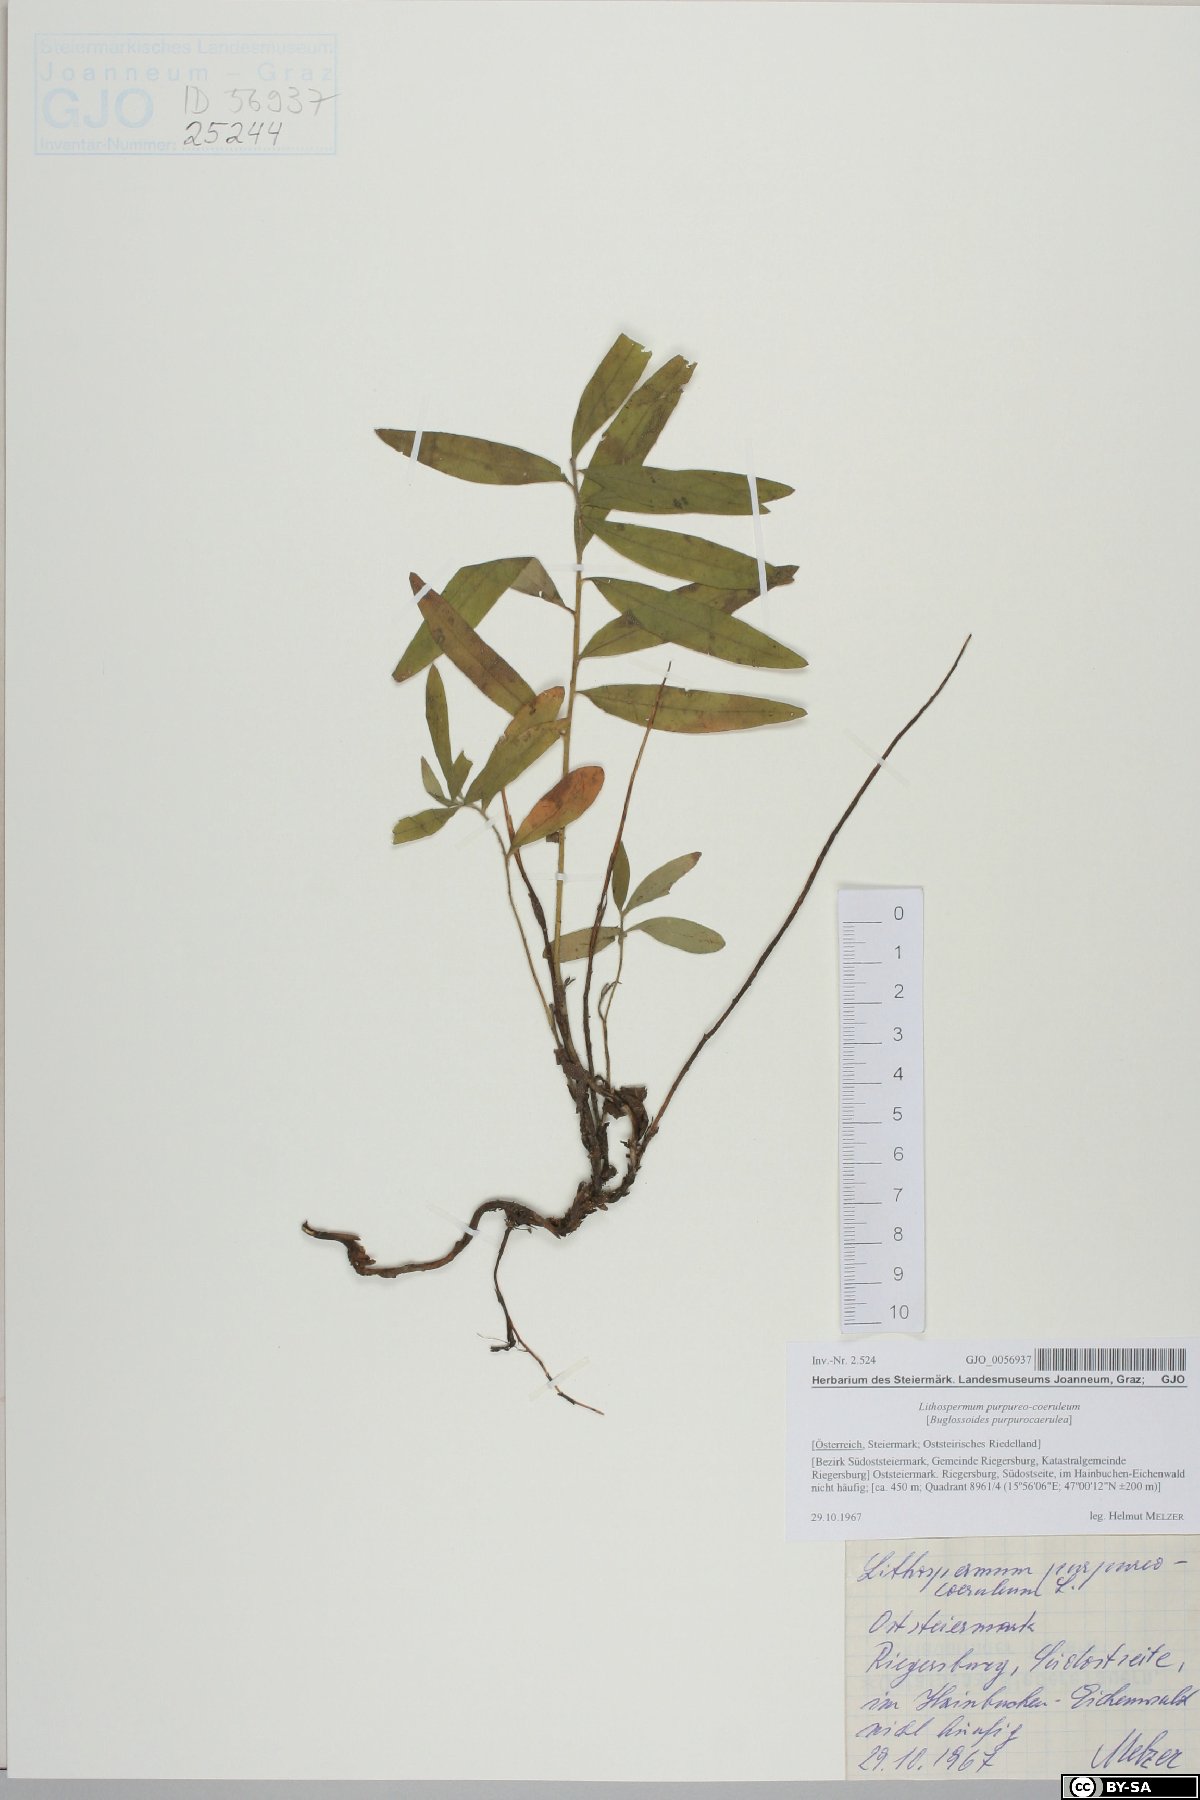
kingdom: Plantae
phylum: Tracheophyta
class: Magnoliopsida
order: Boraginales
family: Boraginaceae
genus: Aegonychon
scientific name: Aegonychon purpurocaeruleum
